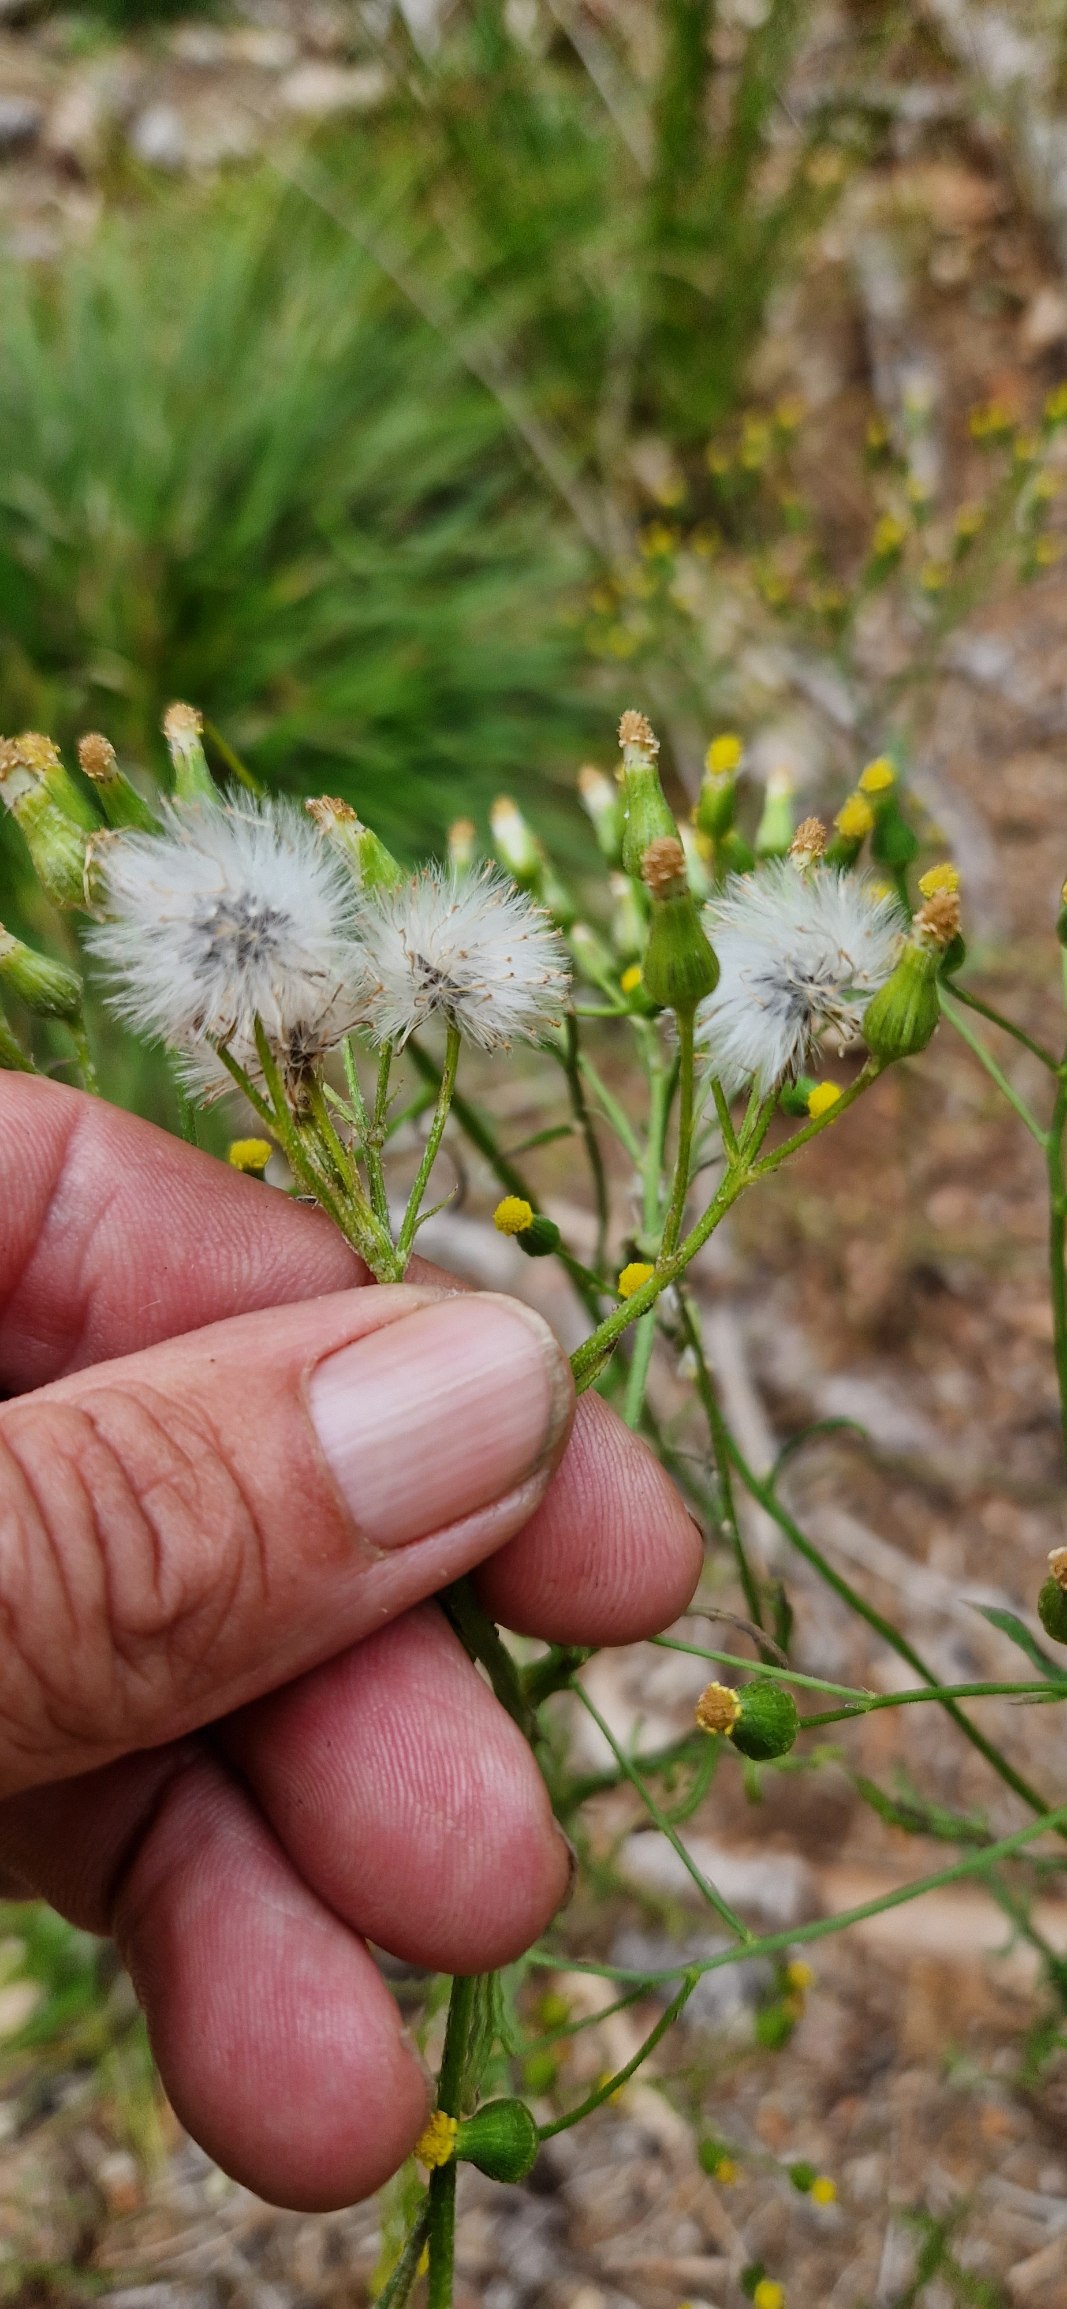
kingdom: Plantae
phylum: Tracheophyta
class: Magnoliopsida
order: Asterales
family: Asteraceae
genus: Senecio
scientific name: Senecio sylvaticus
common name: Skov-brandbæger
